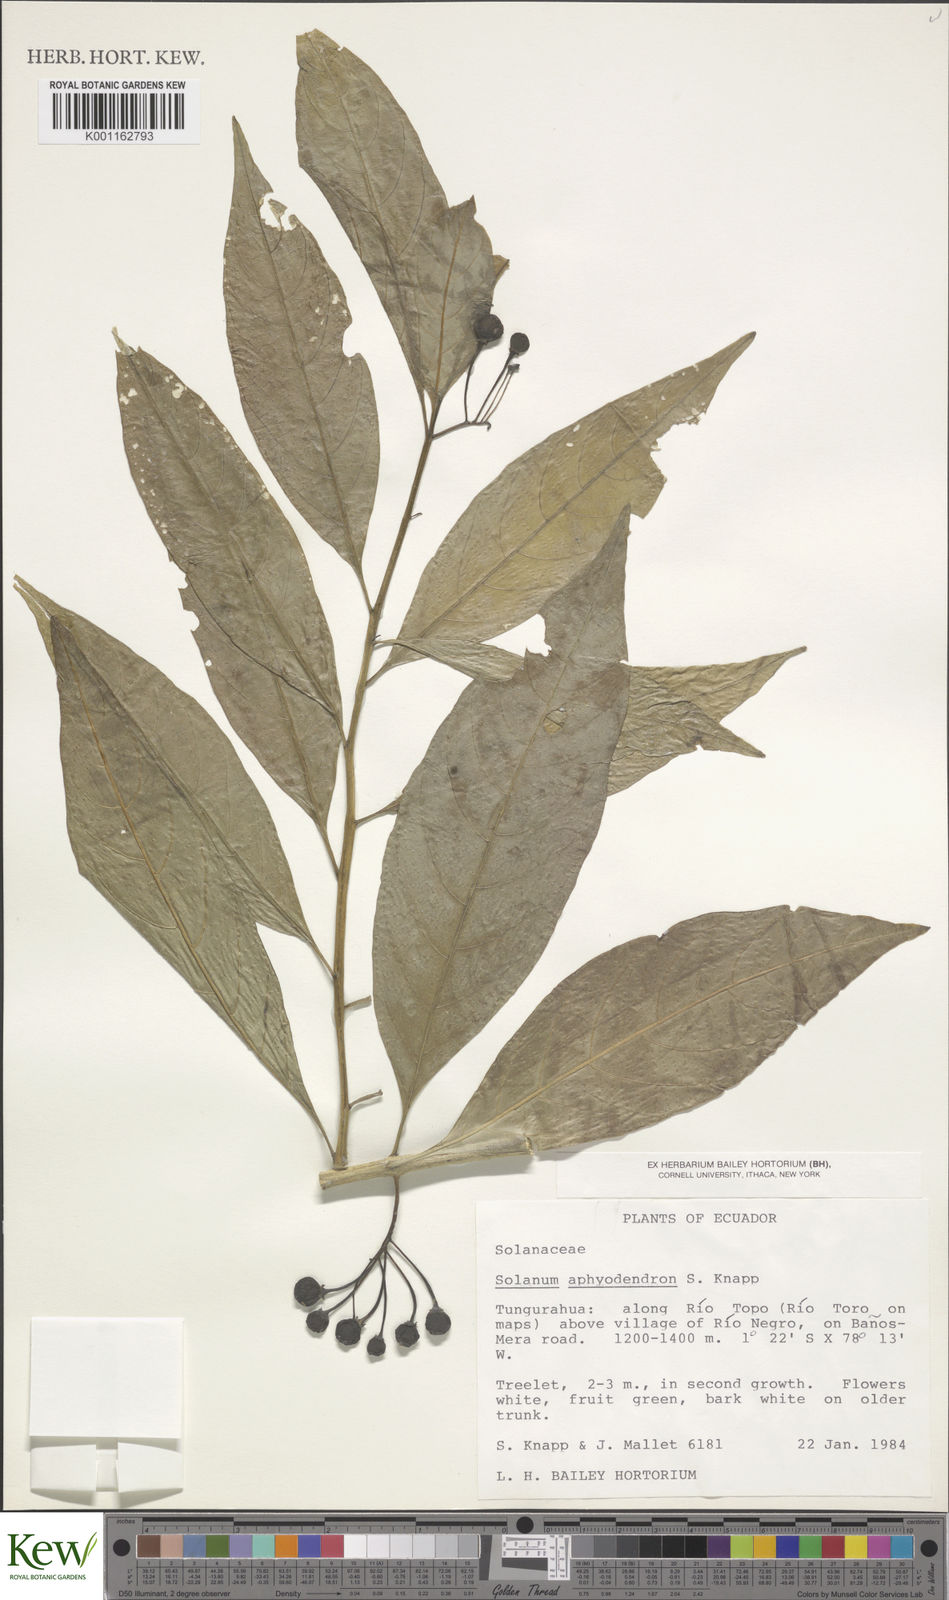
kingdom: Plantae
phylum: Tracheophyta
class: Magnoliopsida
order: Solanales
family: Solanaceae
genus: Solanum
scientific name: Solanum aphyodendron
